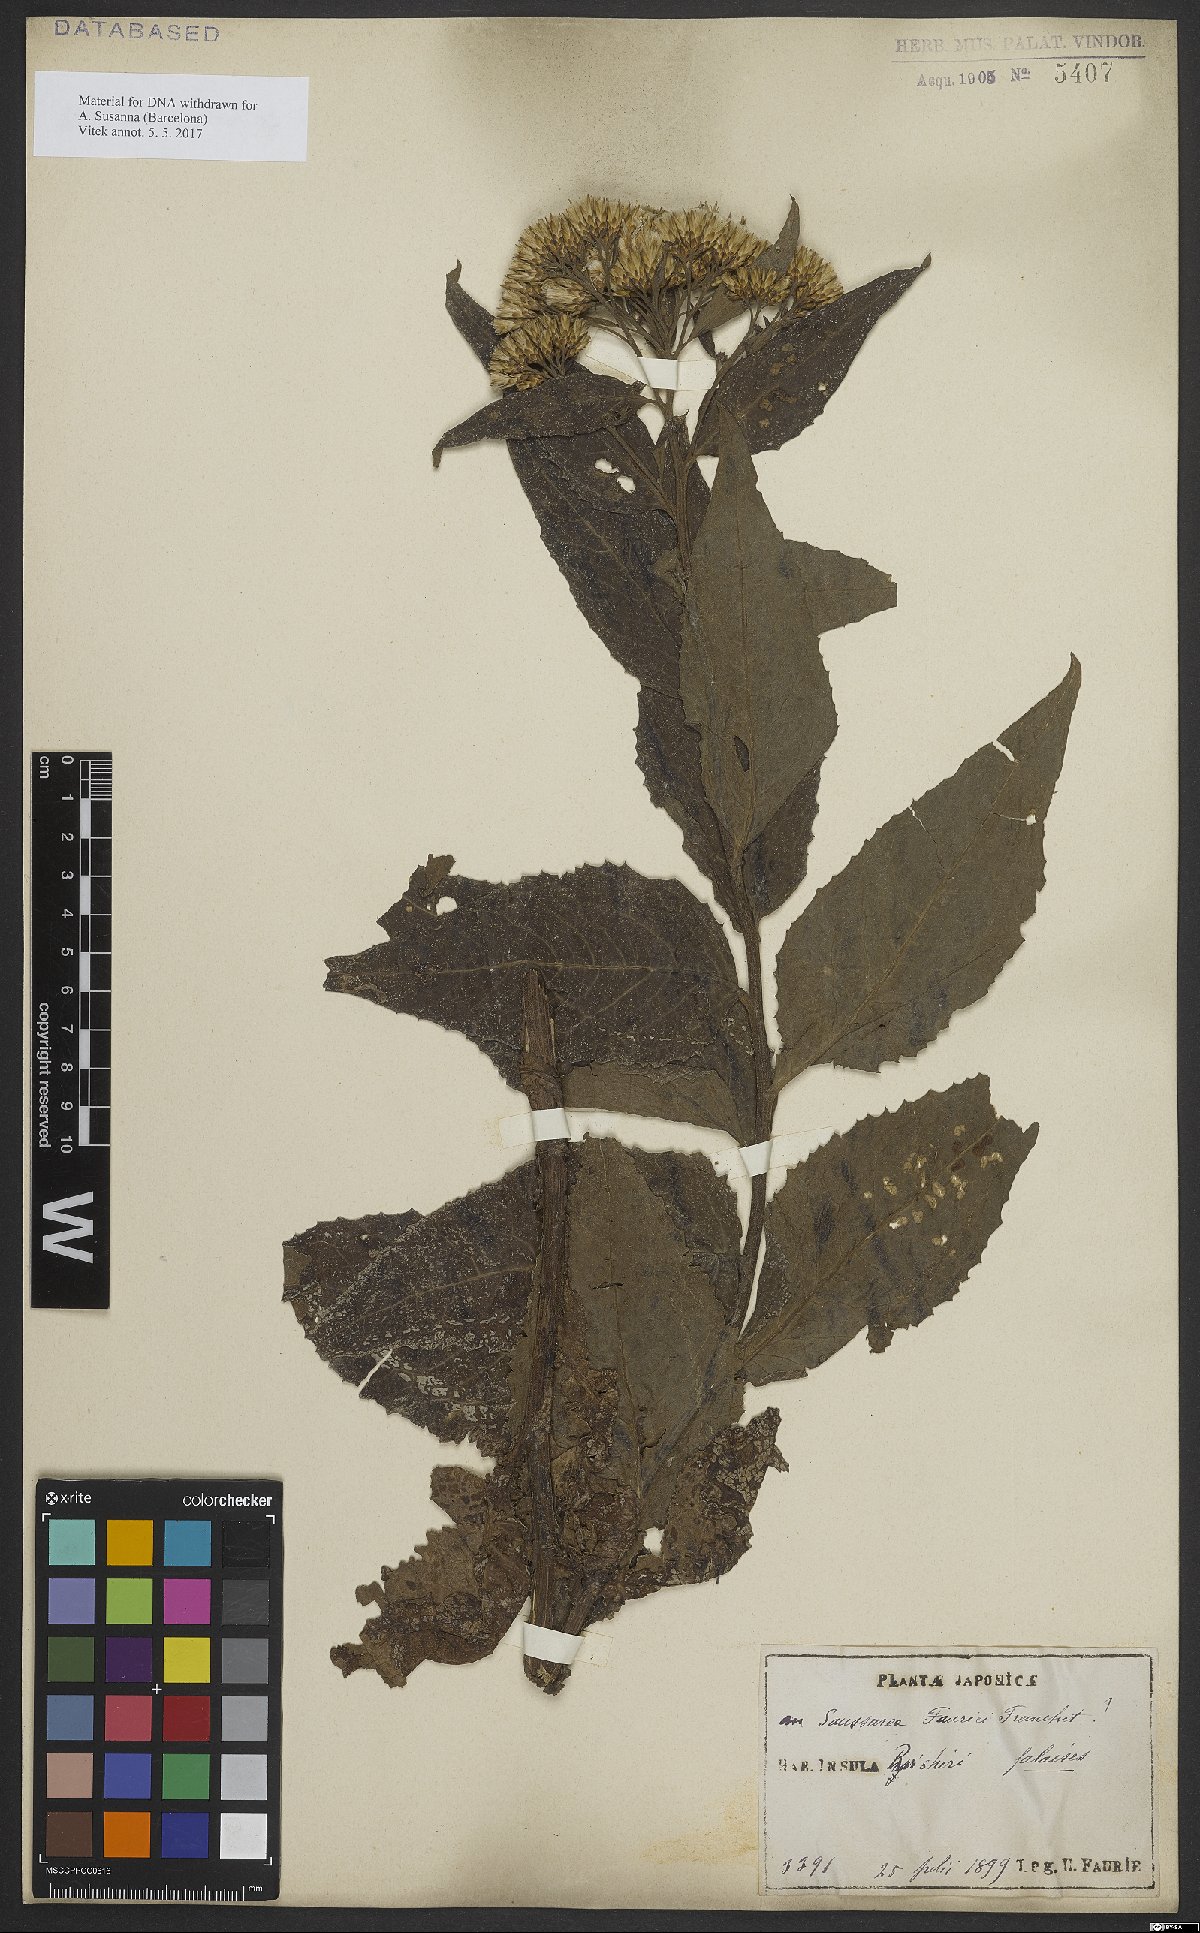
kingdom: Plantae
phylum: Tracheophyta
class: Magnoliopsida
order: Asterales
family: Asteraceae
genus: Saussurea
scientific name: Saussurea fauriei
